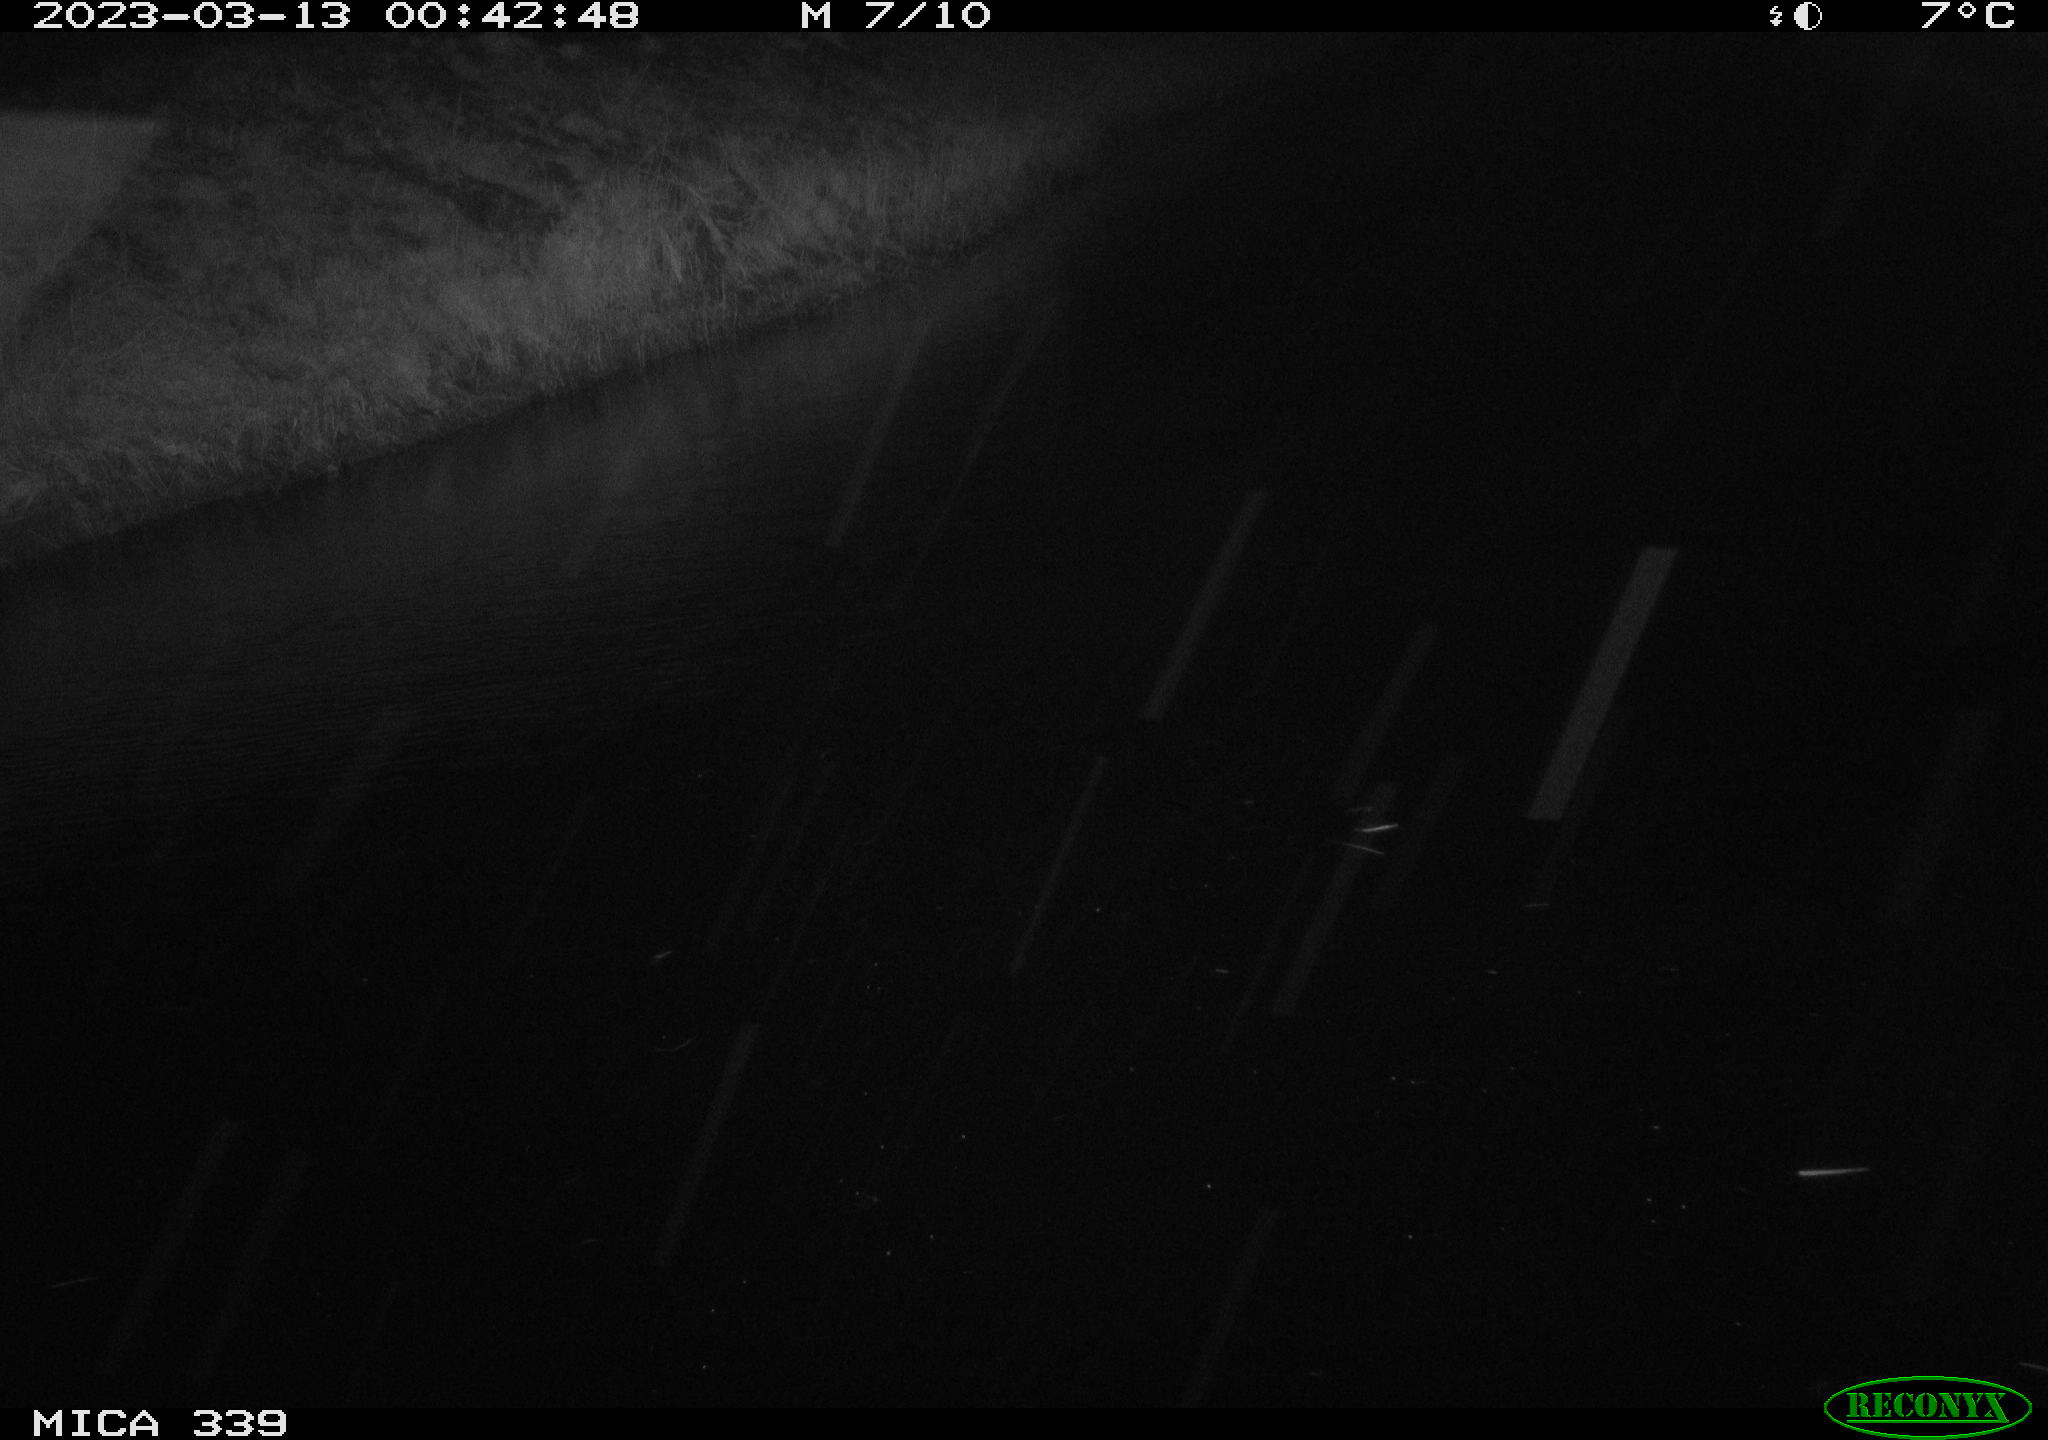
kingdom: Animalia
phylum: Chordata
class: Aves
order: Gruiformes
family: Rallidae
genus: Fulica
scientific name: Fulica atra
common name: Eurasian coot
